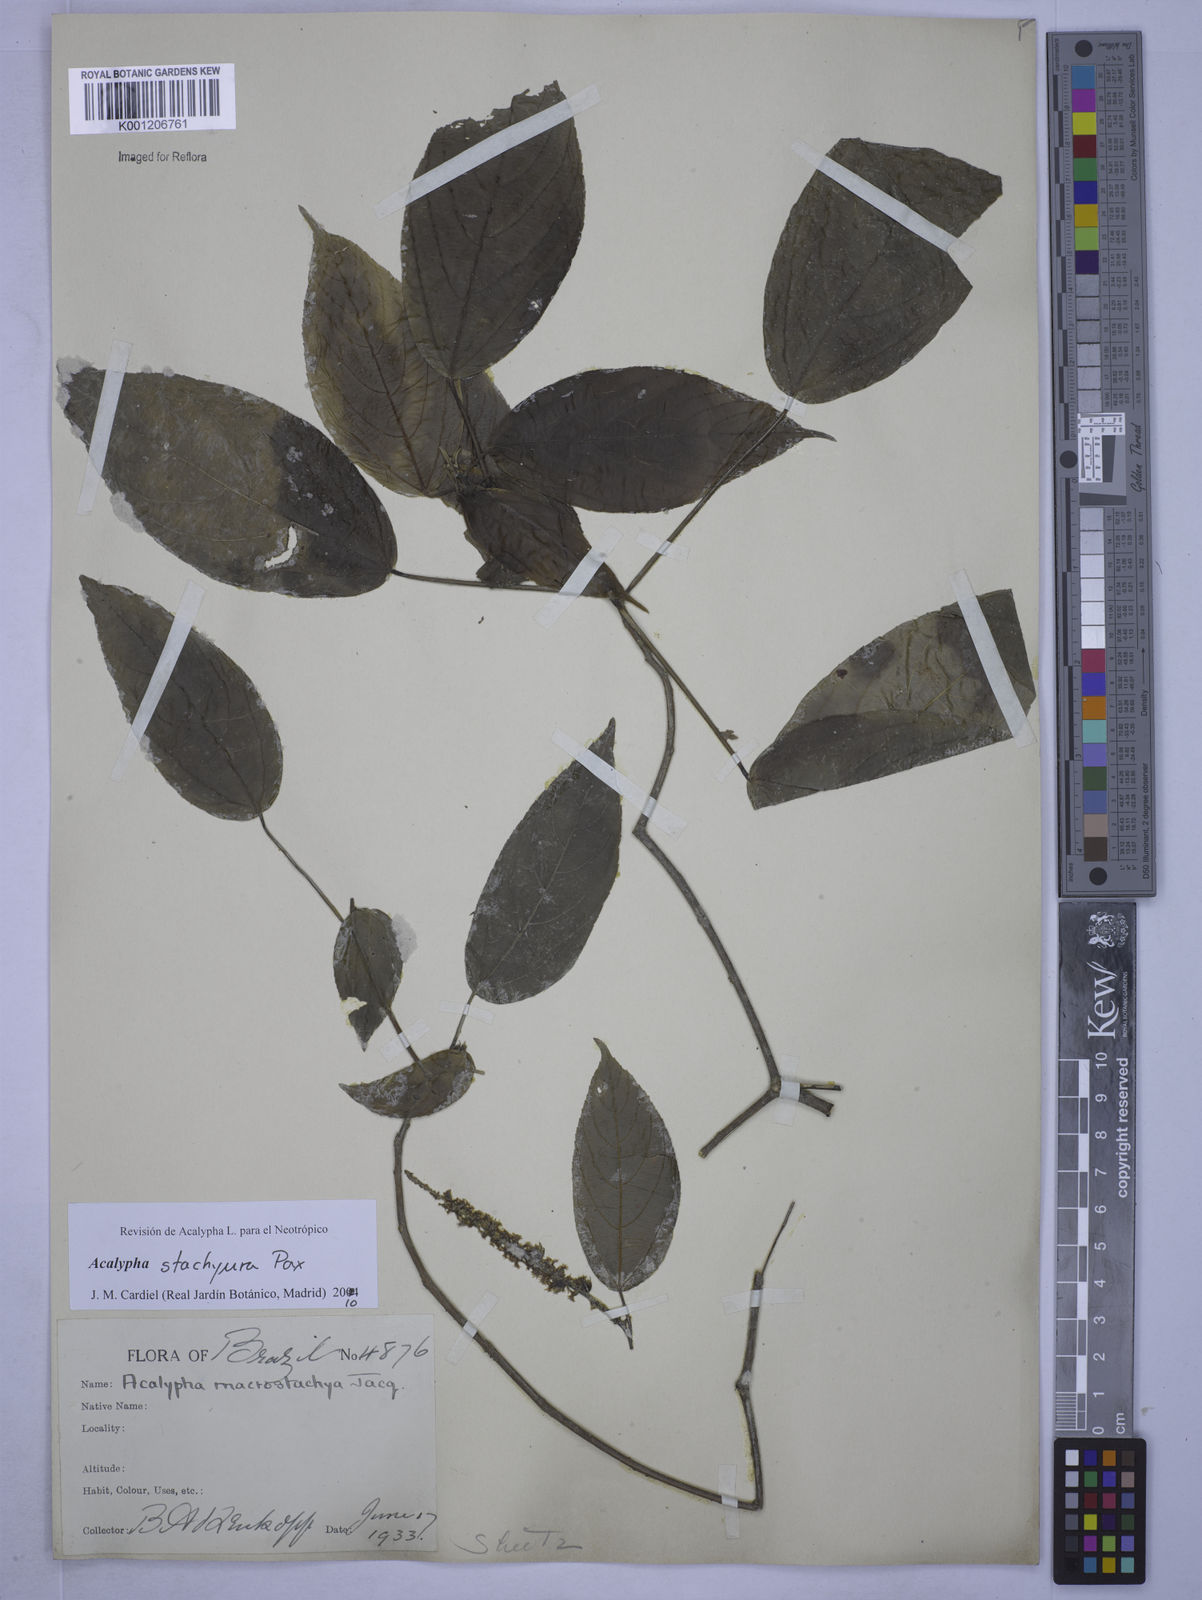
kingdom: Plantae
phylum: Tracheophyta
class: Magnoliopsida
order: Malpighiales
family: Euphorbiaceae
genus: Acalypha
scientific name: Acalypha stachyura
